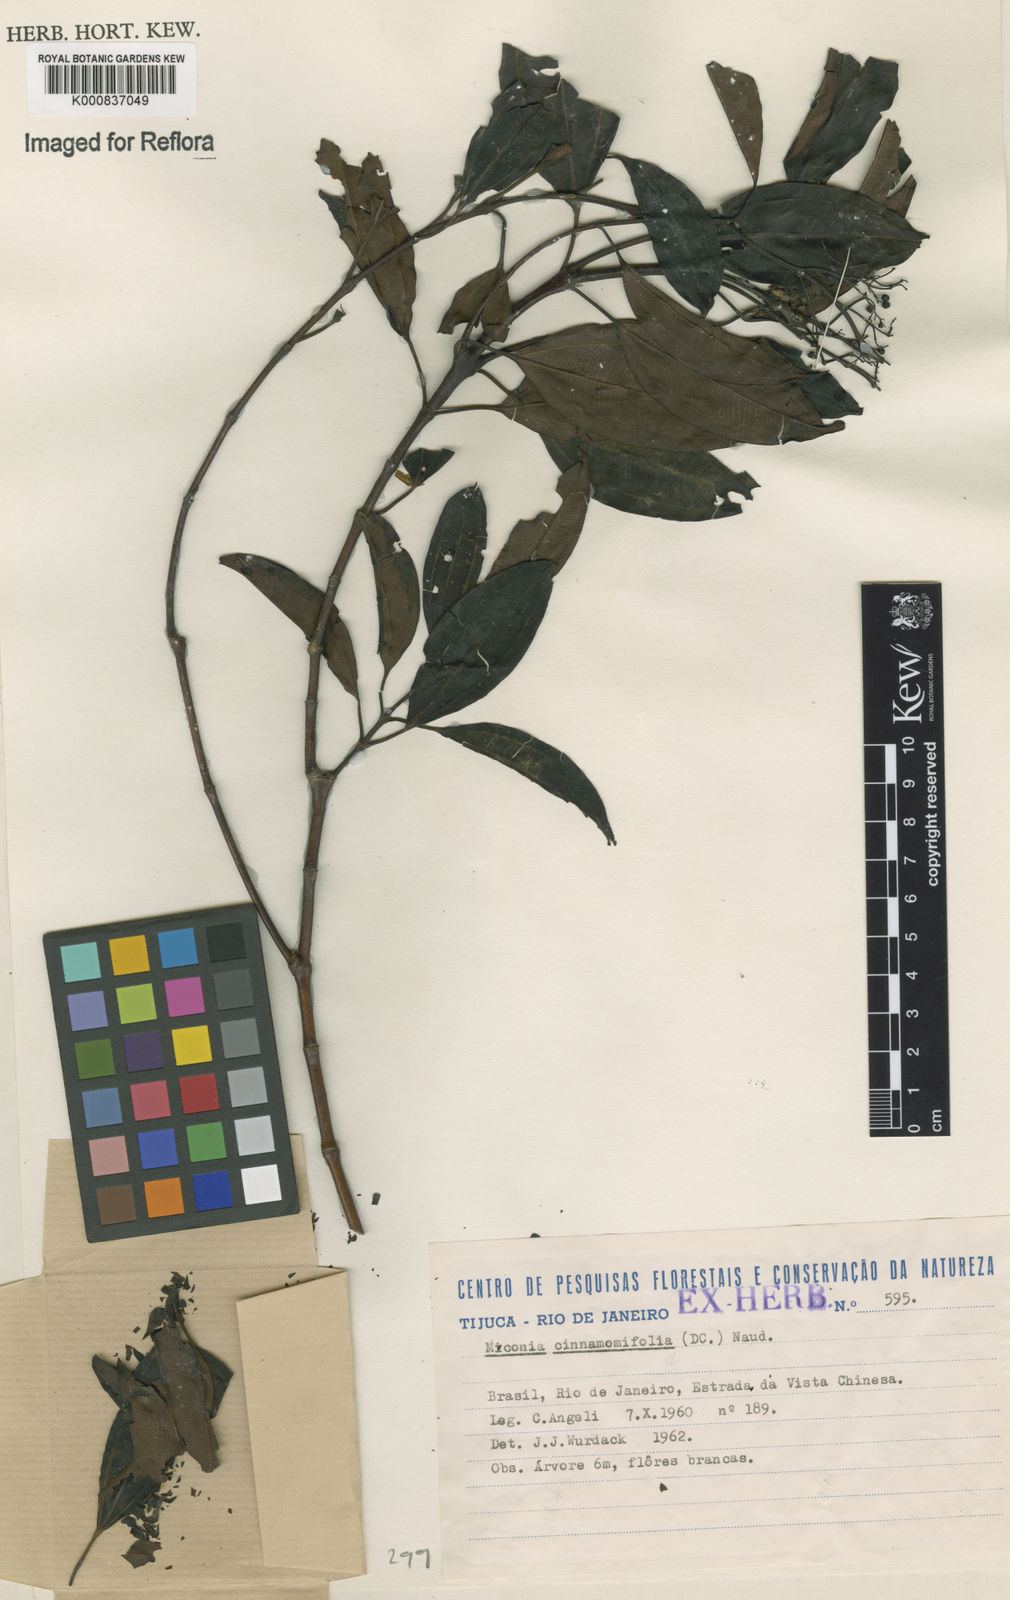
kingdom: Plantae
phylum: Tracheophyta
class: Magnoliopsida
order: Myrtales
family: Melastomataceae
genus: Miconia
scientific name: Miconia cinnamomifolia
